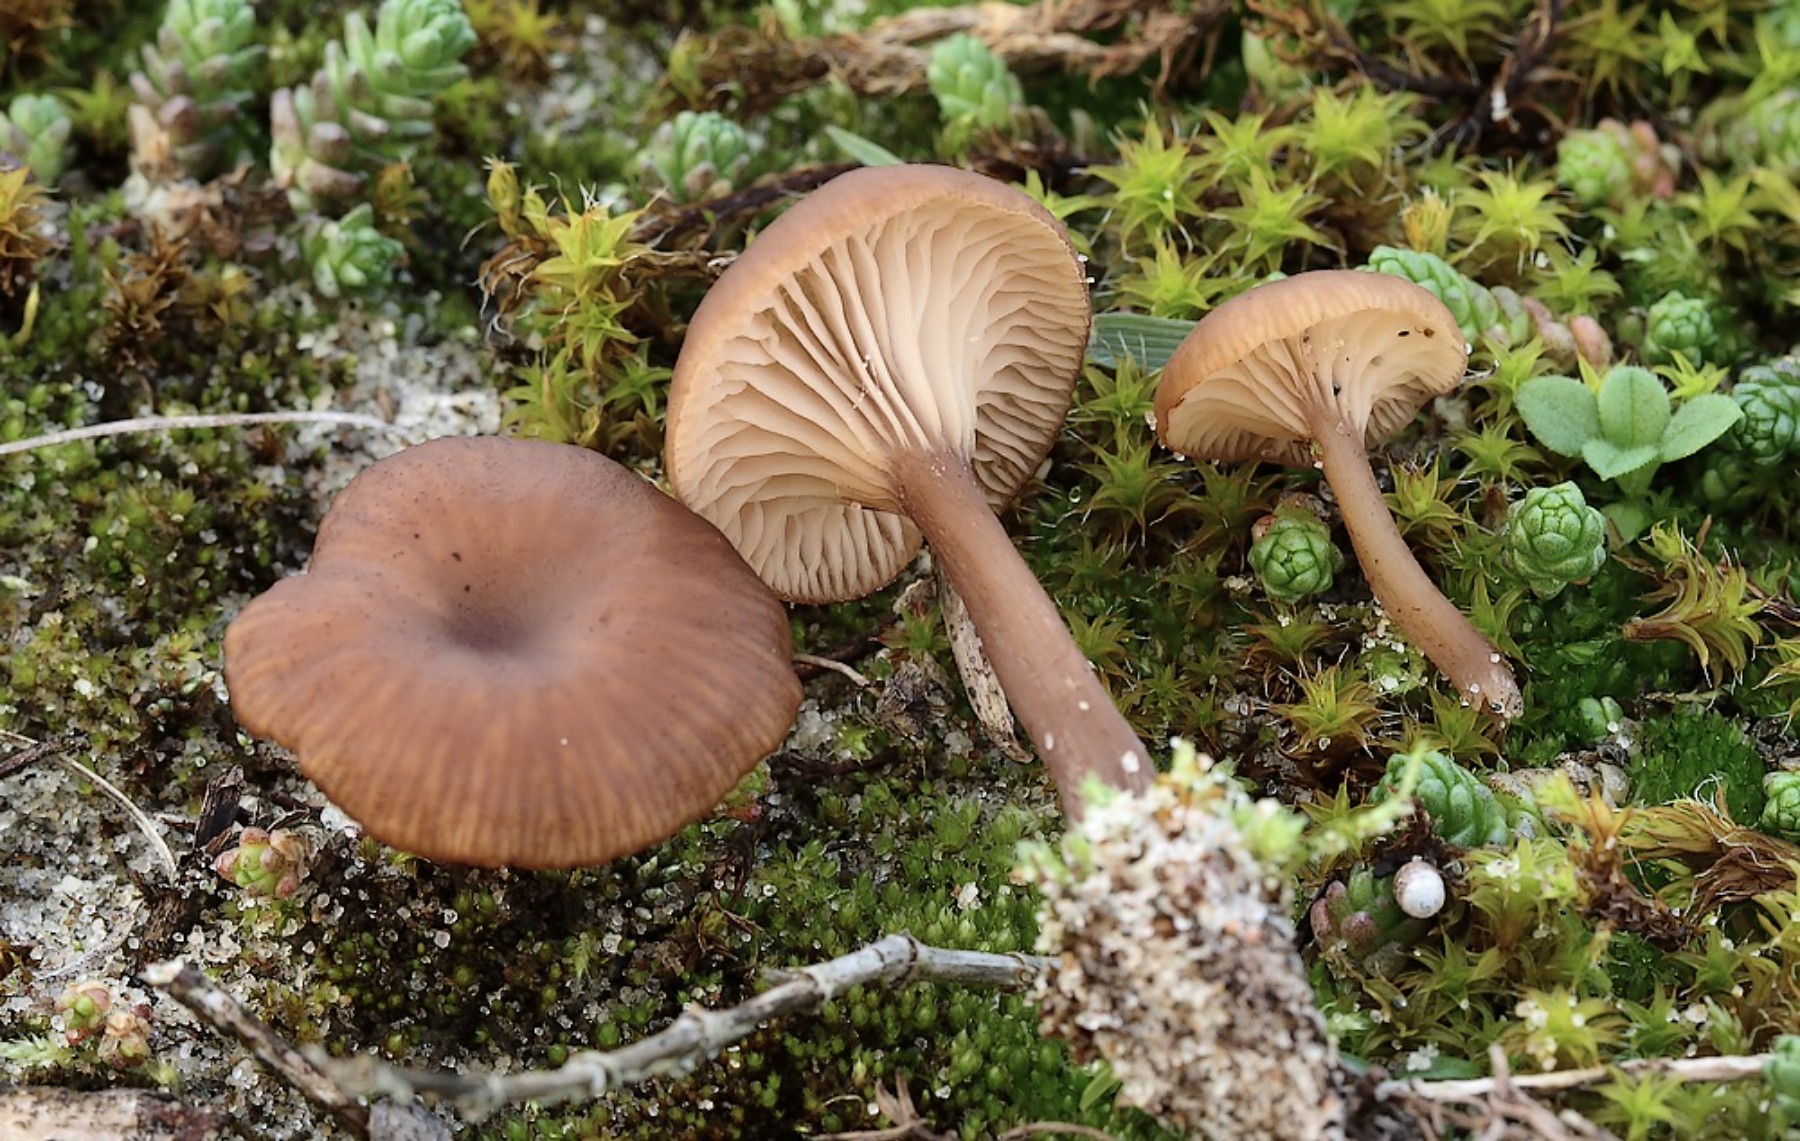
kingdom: Fungi
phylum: Basidiomycota
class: Agaricomycetes
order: Agaricales
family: Tricholomataceae
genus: Omphalina
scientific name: Omphalina pyxidata
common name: rødbrun navlehat
